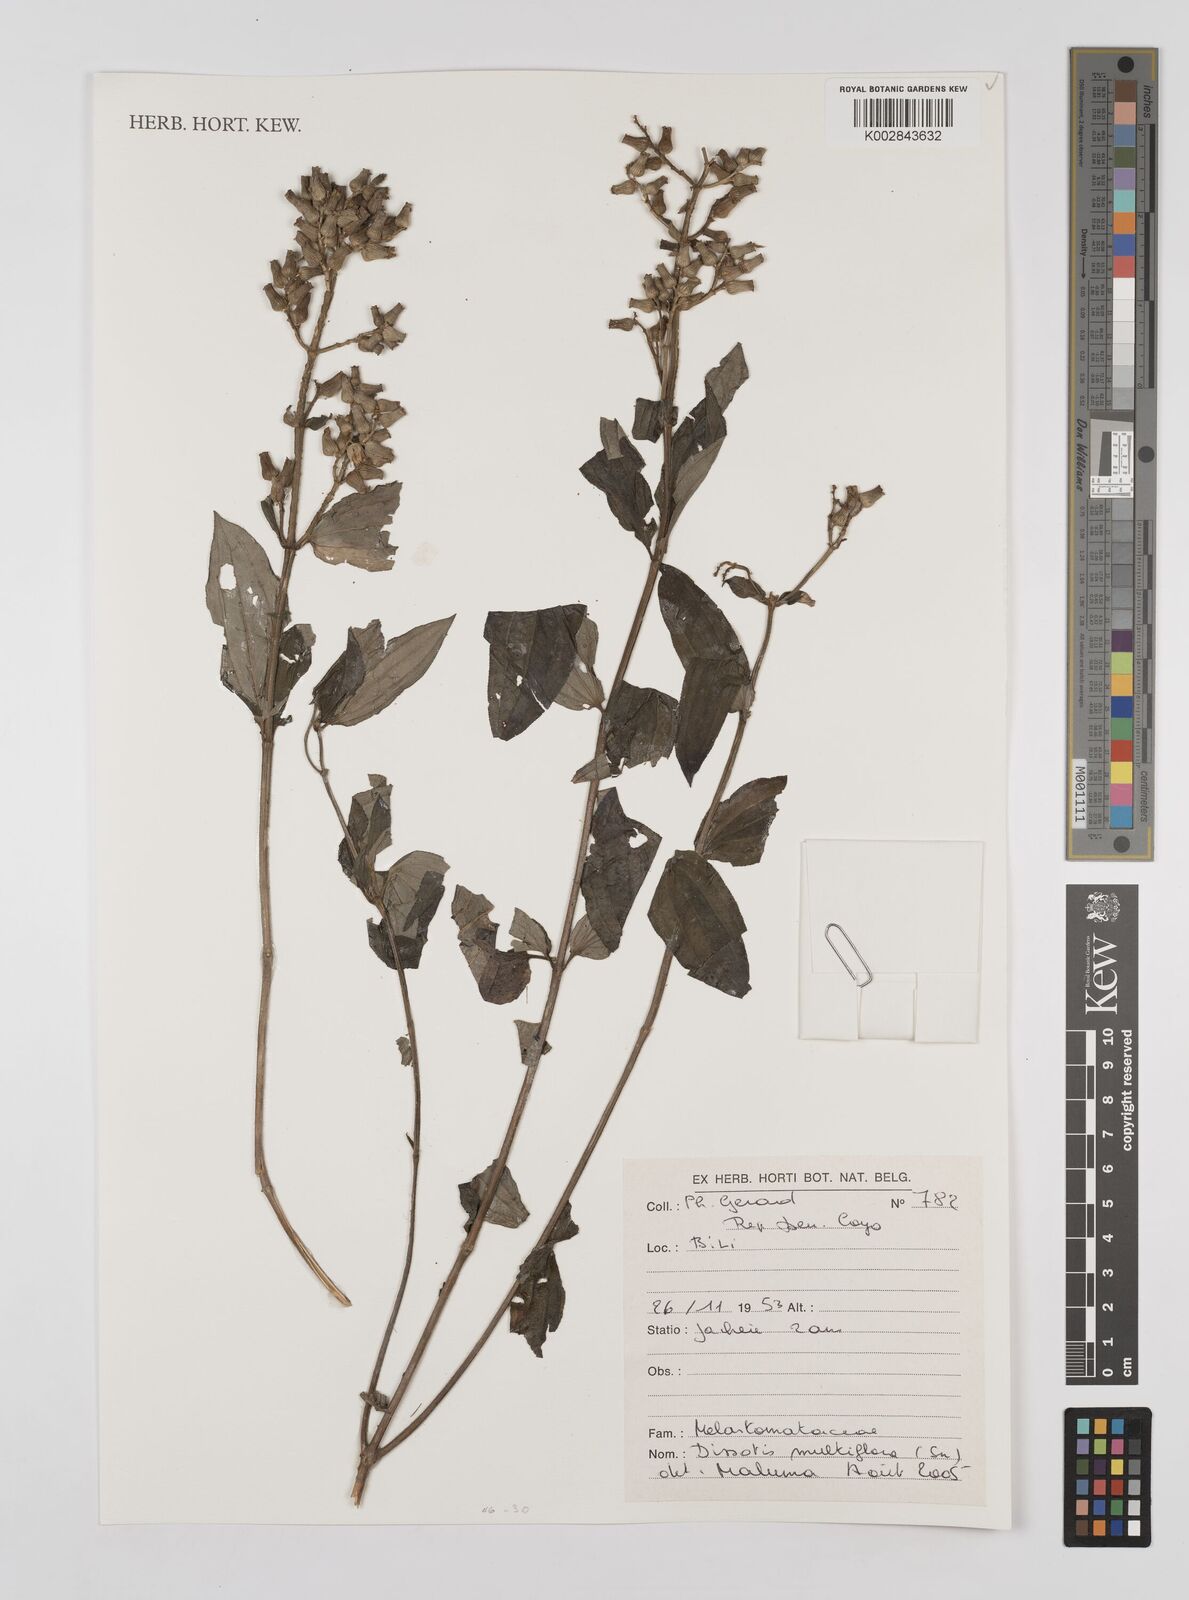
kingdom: Plantae
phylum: Tracheophyta
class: Magnoliopsida
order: Myrtales
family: Melastomataceae
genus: Dupineta
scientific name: Dupineta multiflora
